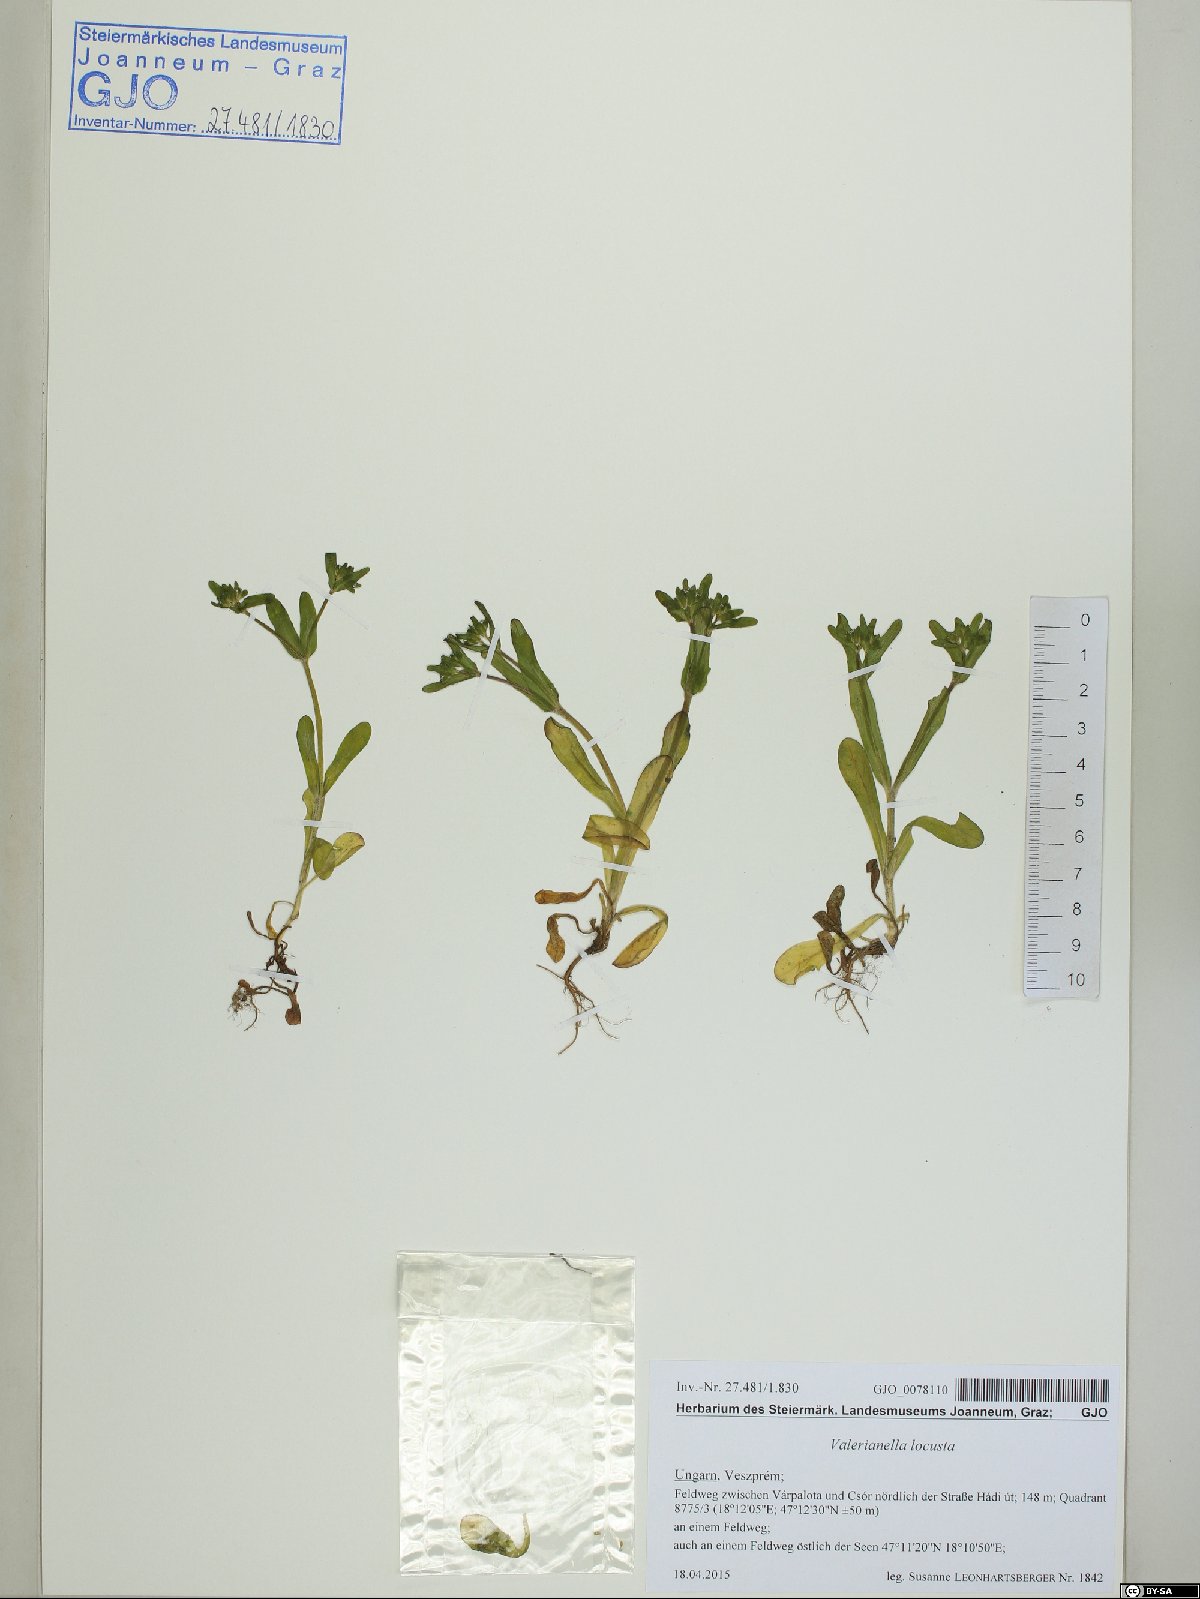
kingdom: Plantae
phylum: Tracheophyta
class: Magnoliopsida
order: Dipsacales
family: Caprifoliaceae
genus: Valerianella
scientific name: Valerianella locusta
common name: Common cornsalad
